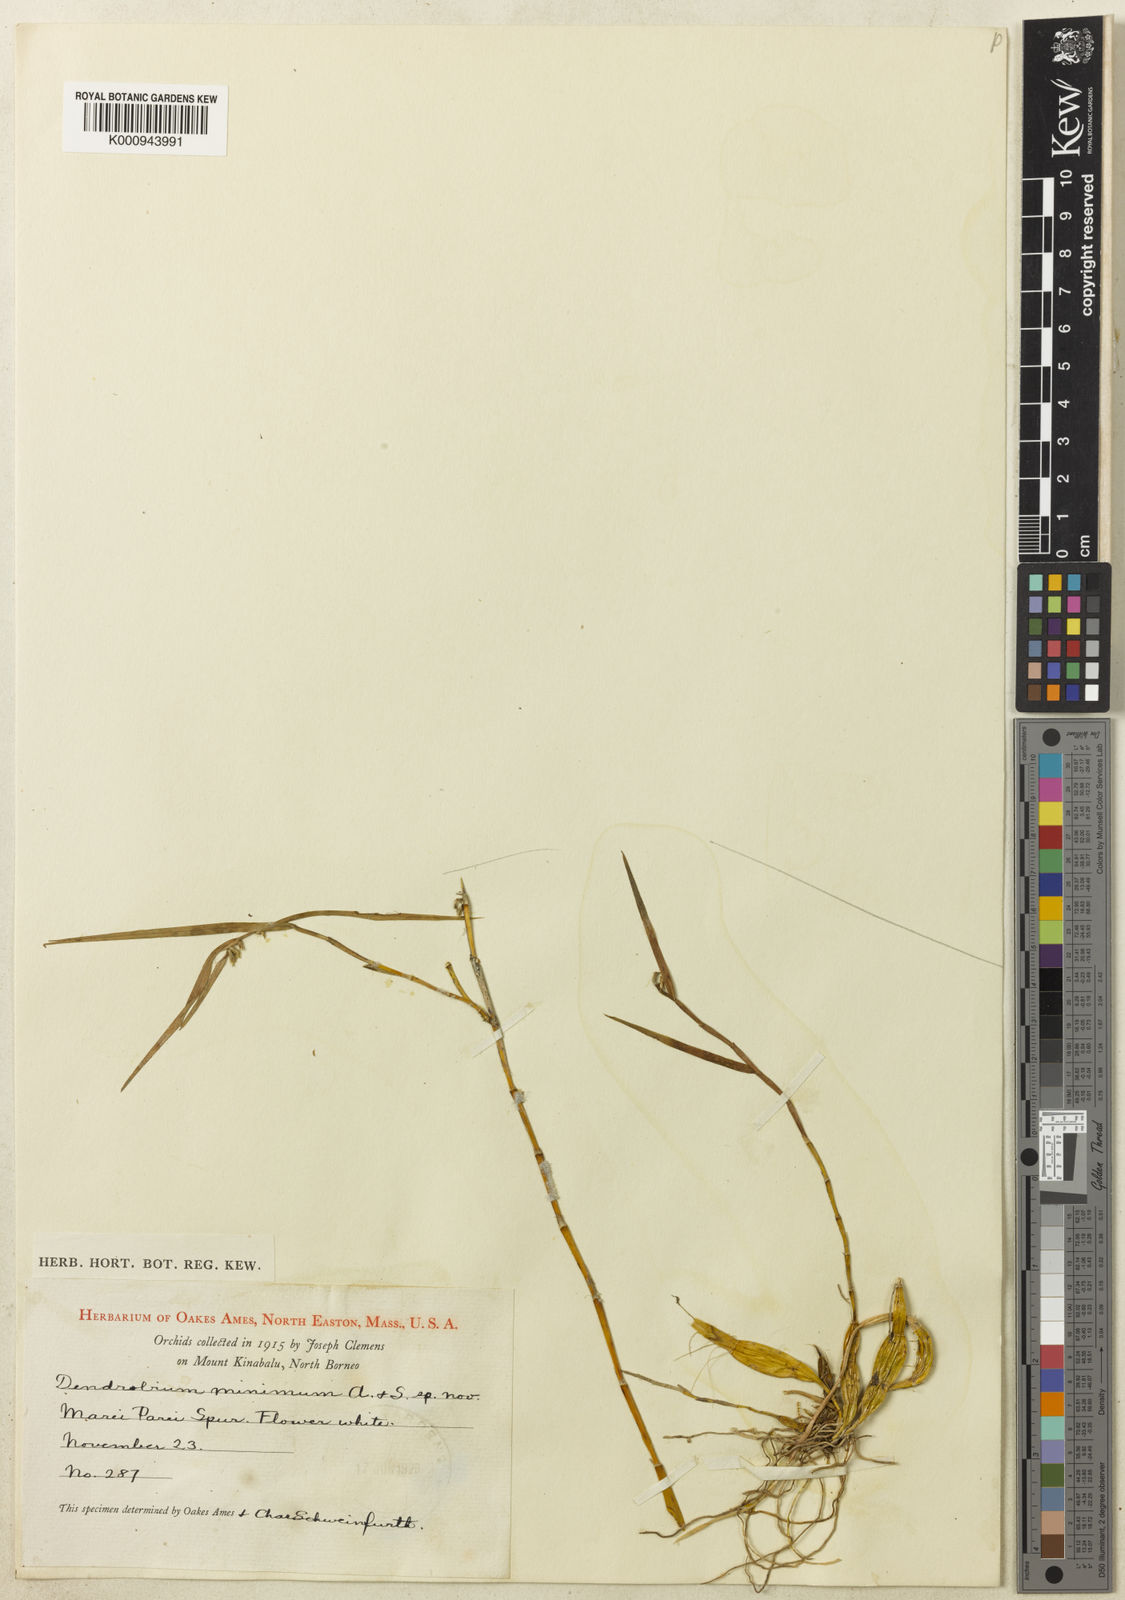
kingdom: Plantae
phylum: Tracheophyta
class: Liliopsida
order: Asparagales
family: Orchidaceae
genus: Dendrobium
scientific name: Dendrobium minimum
